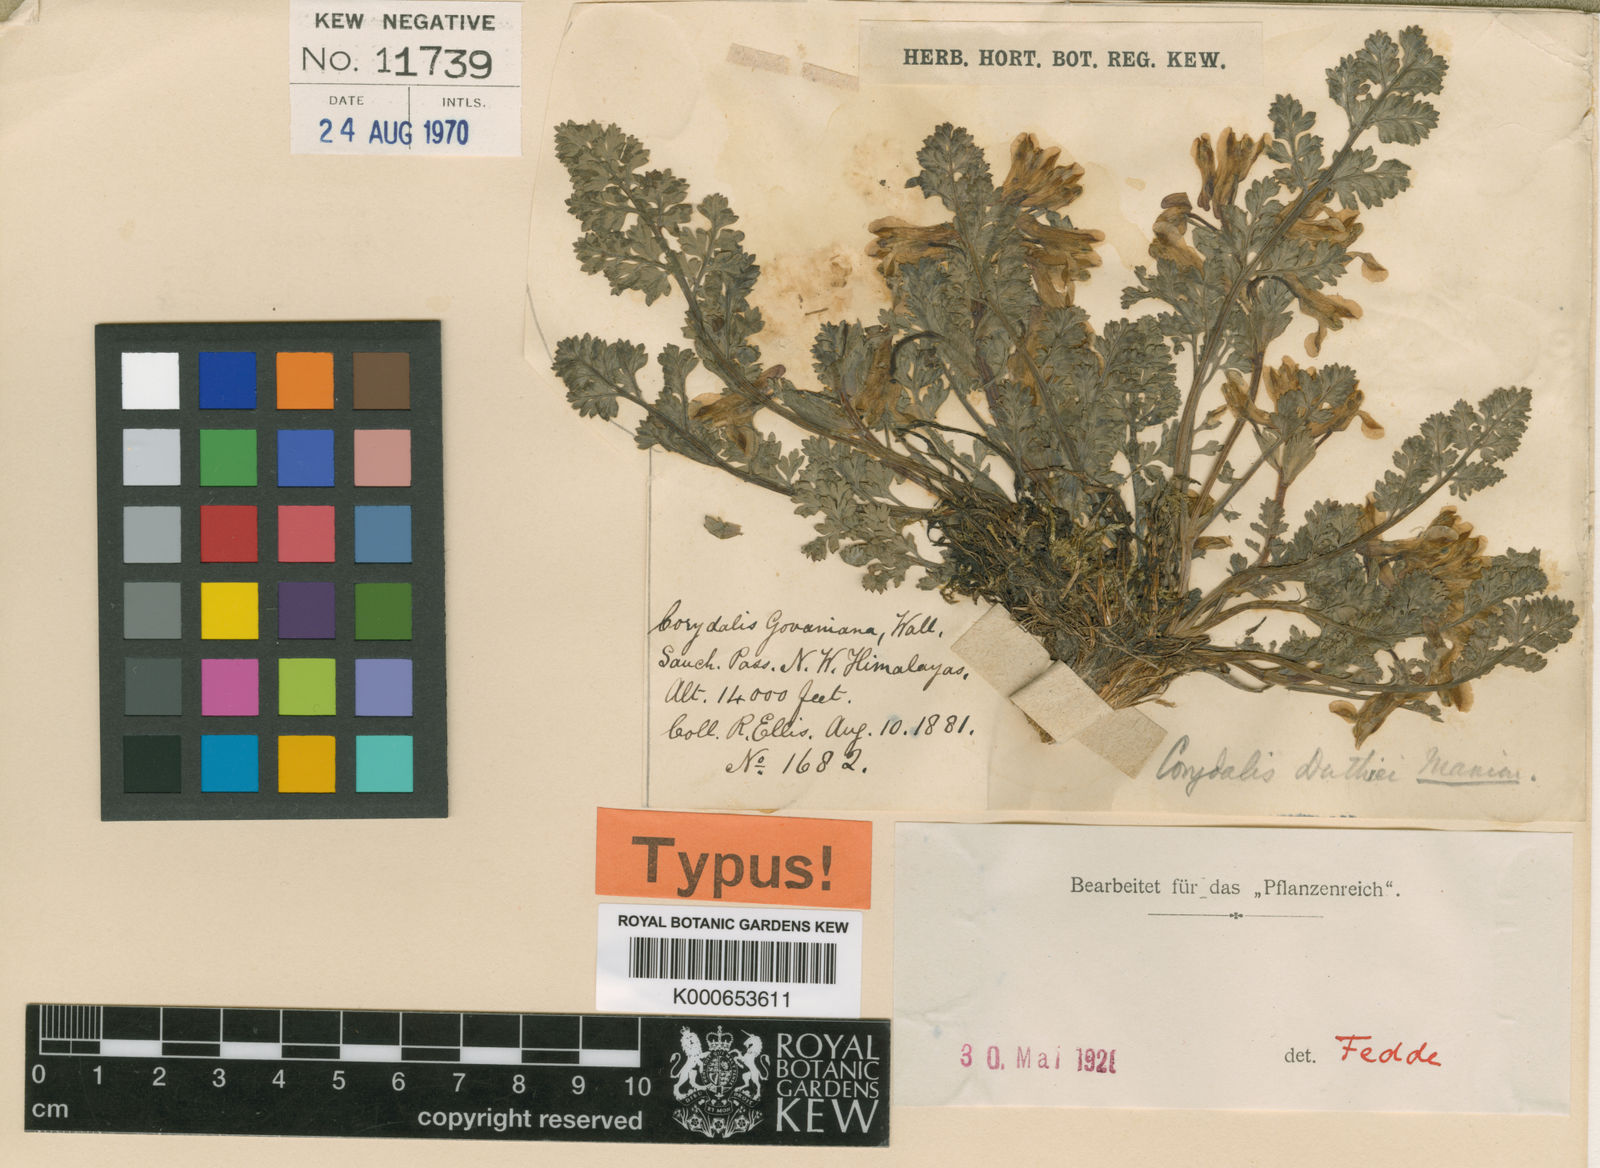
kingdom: Plantae
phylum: Tracheophyta
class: Magnoliopsida
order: Ranunculales
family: Papaveraceae
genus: Corydalis
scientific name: Corydalis duthiei
